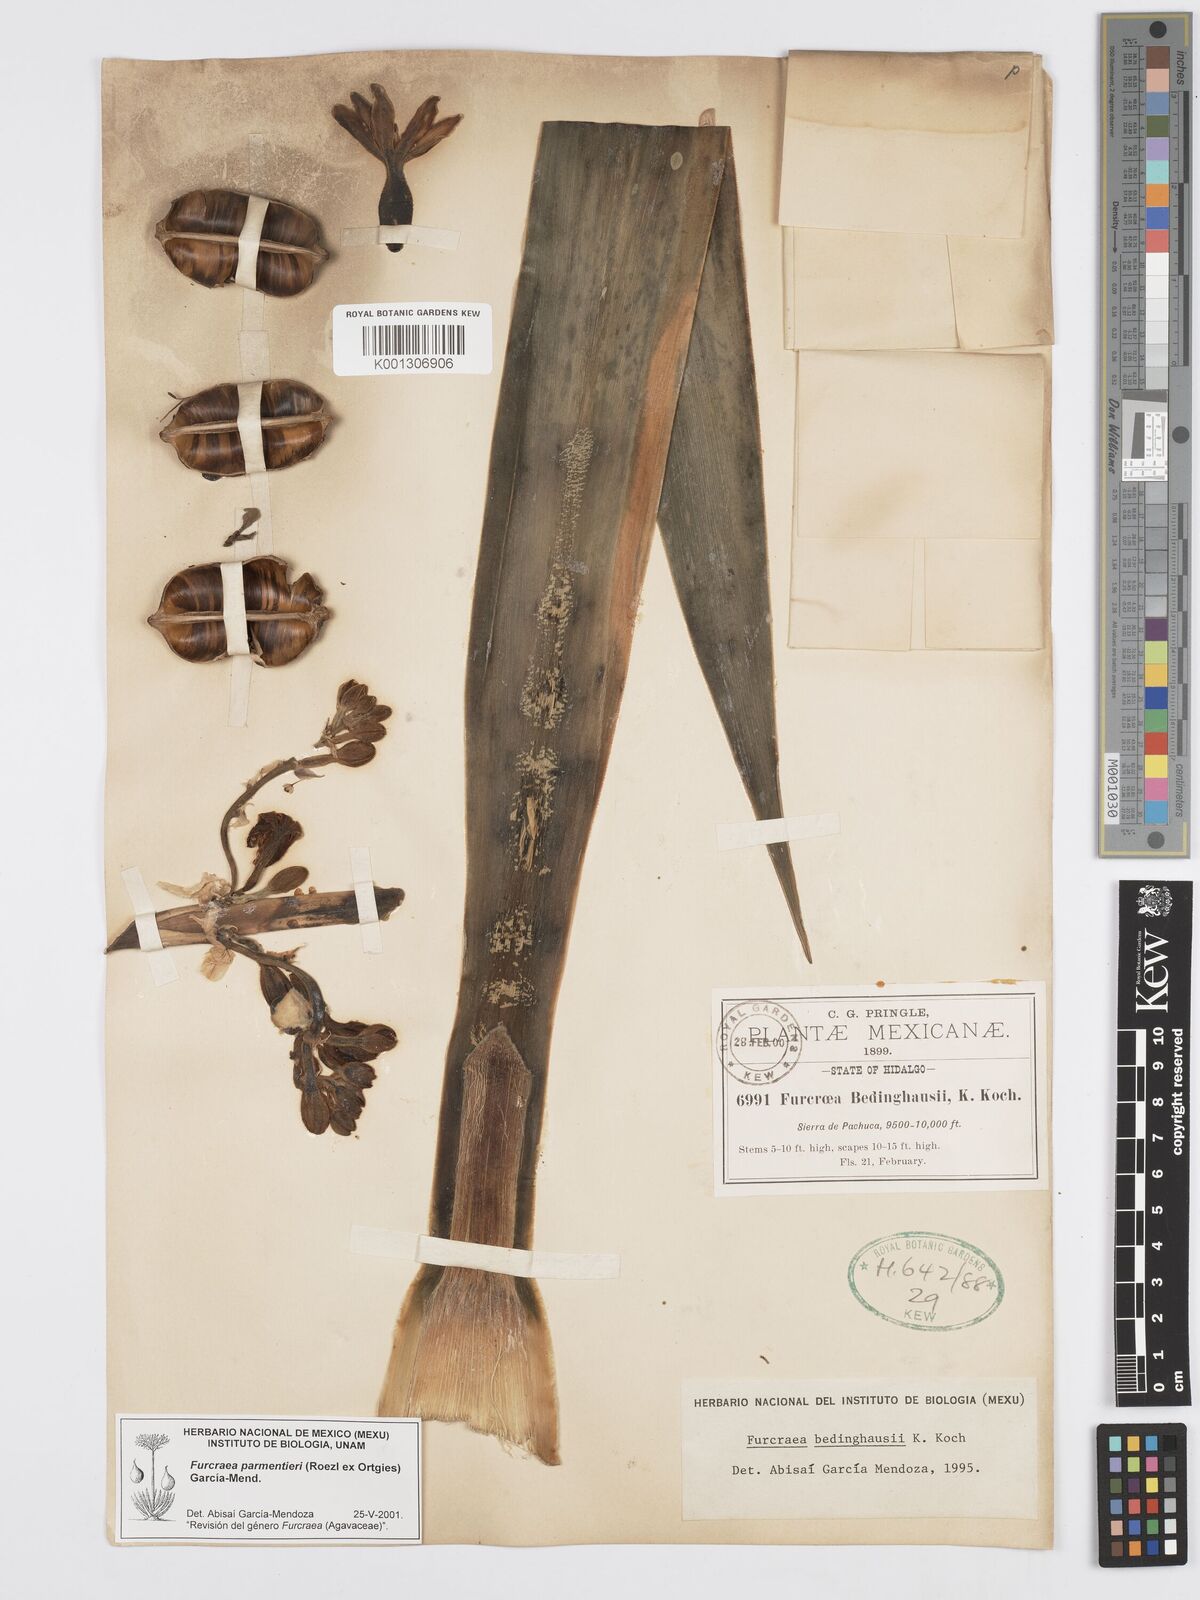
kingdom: Plantae
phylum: Tracheophyta
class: Liliopsida
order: Asparagales
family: Asparagaceae
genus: Furcraea
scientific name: Furcraea parmentieri
